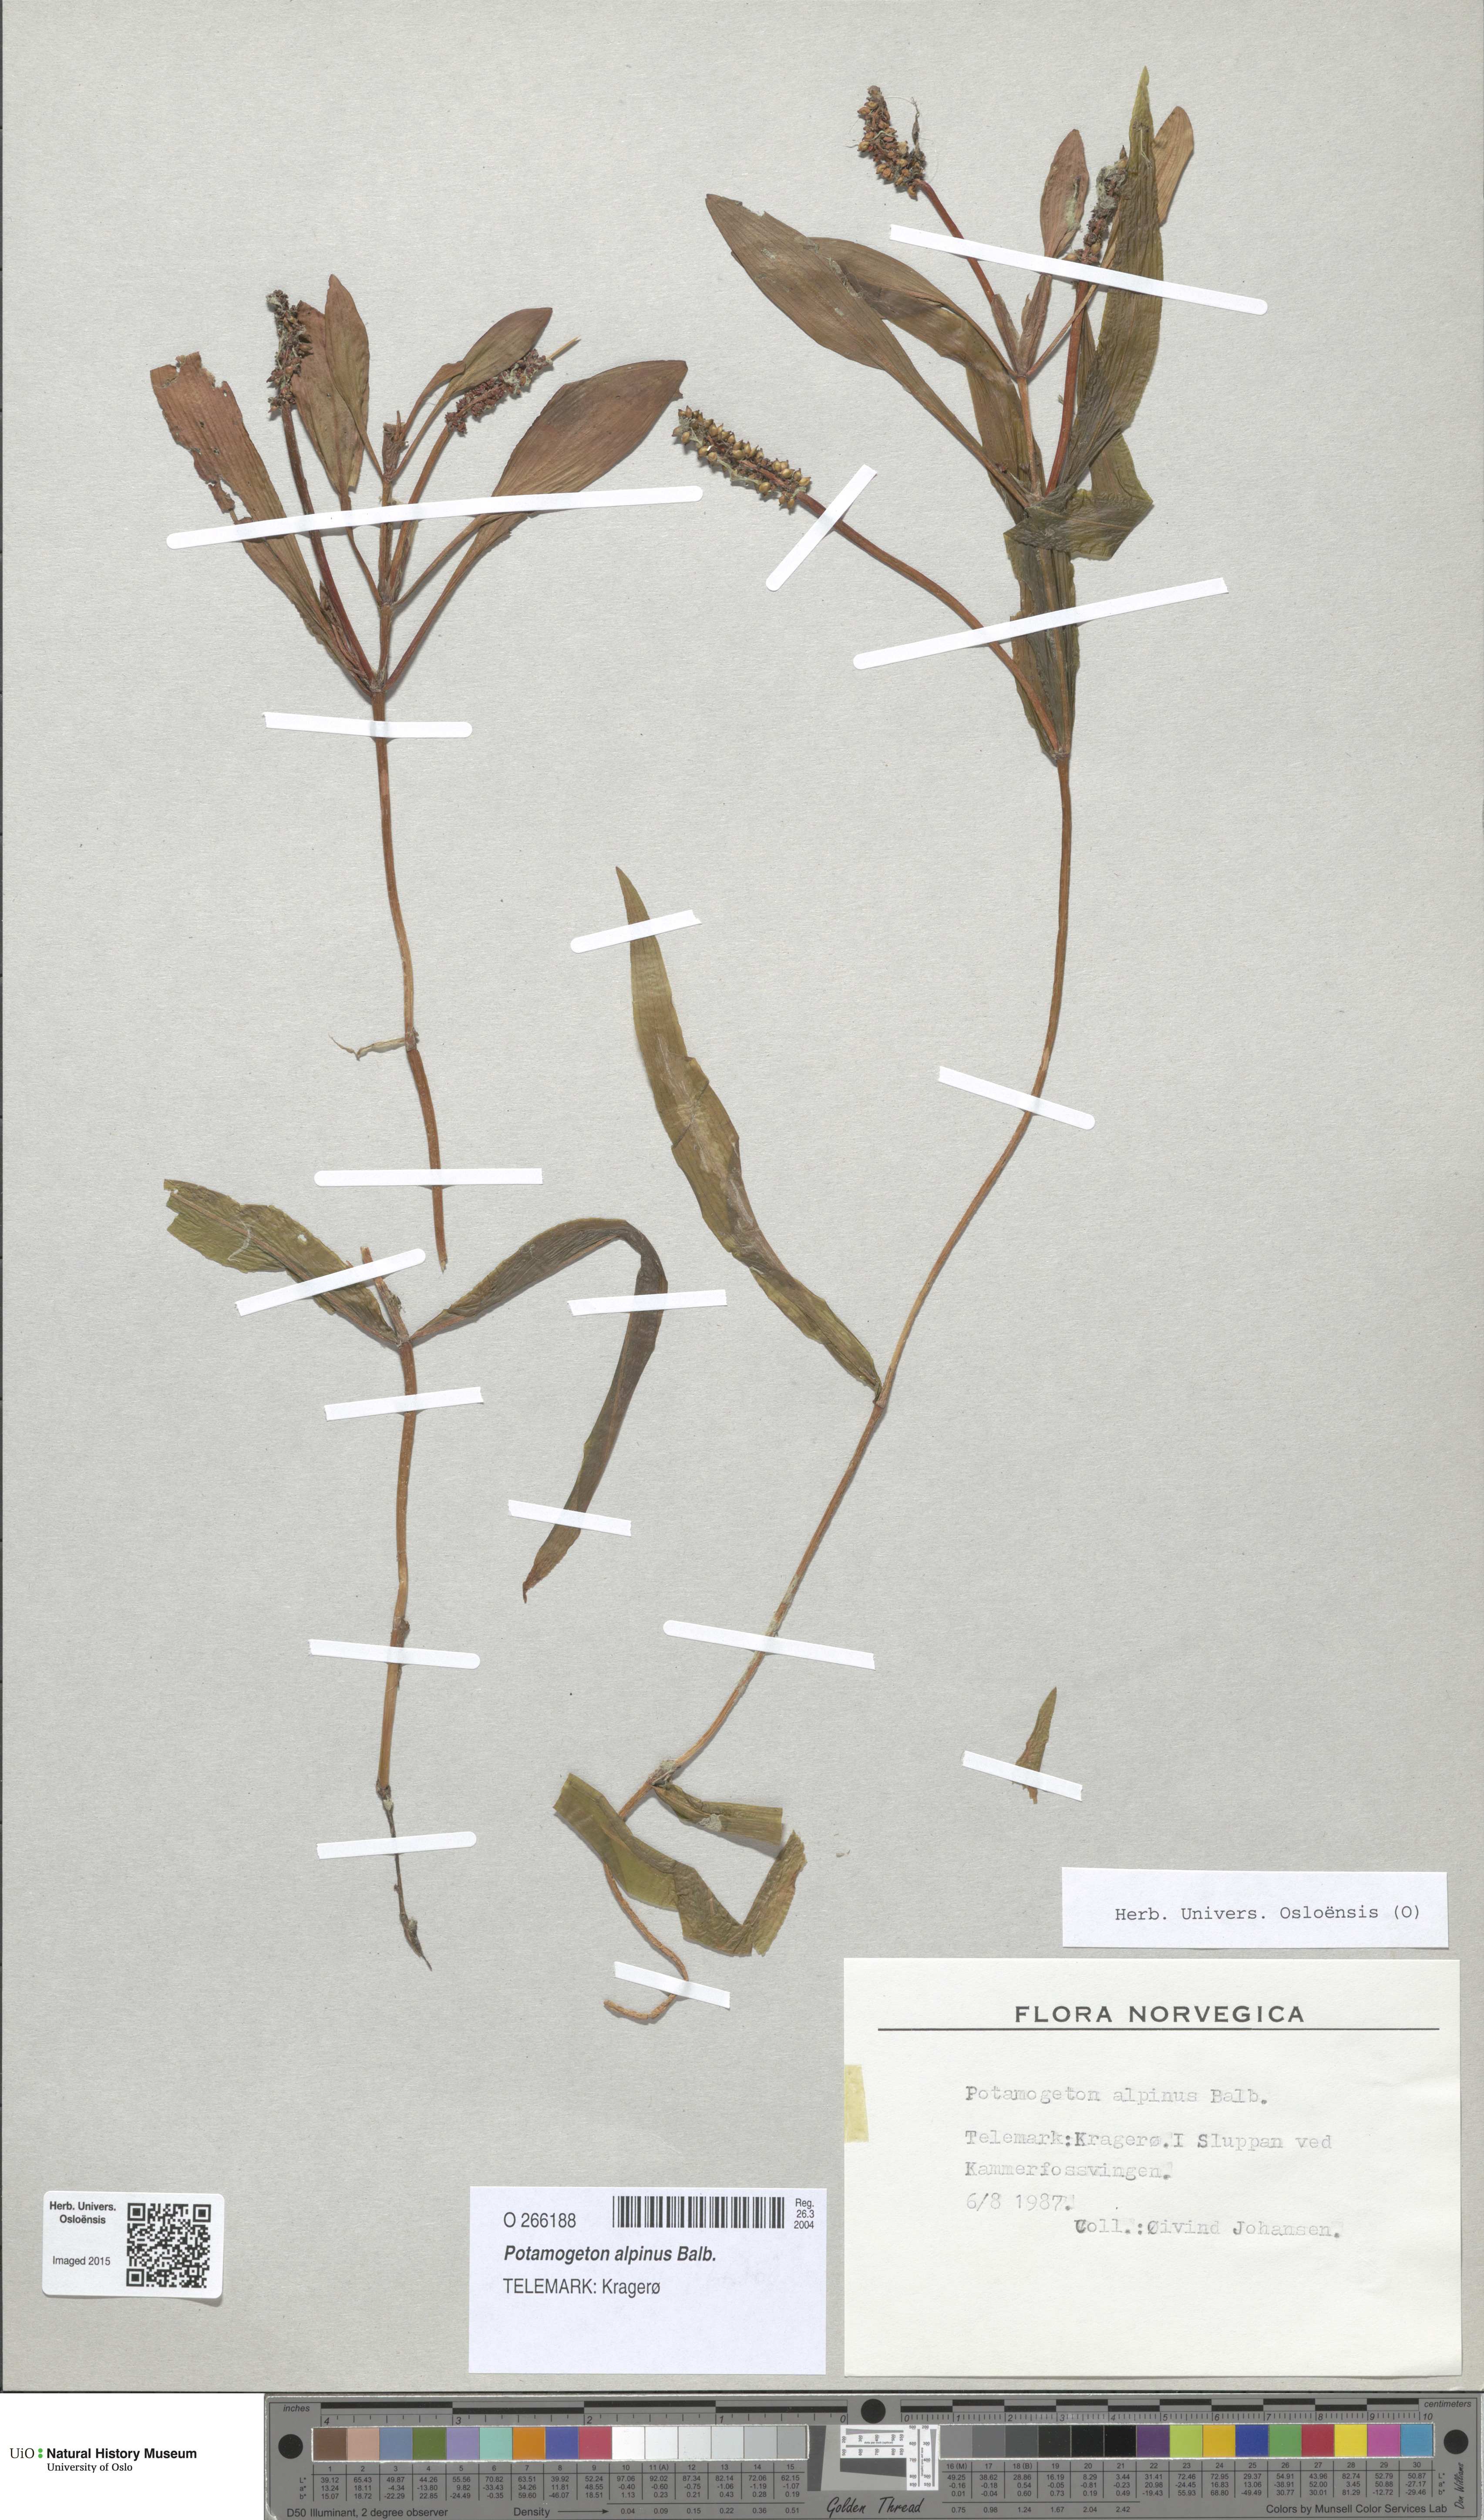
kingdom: Plantae
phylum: Tracheophyta
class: Liliopsida
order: Alismatales
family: Potamogetonaceae
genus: Potamogeton
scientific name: Potamogeton alpinus
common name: Red pondweed
